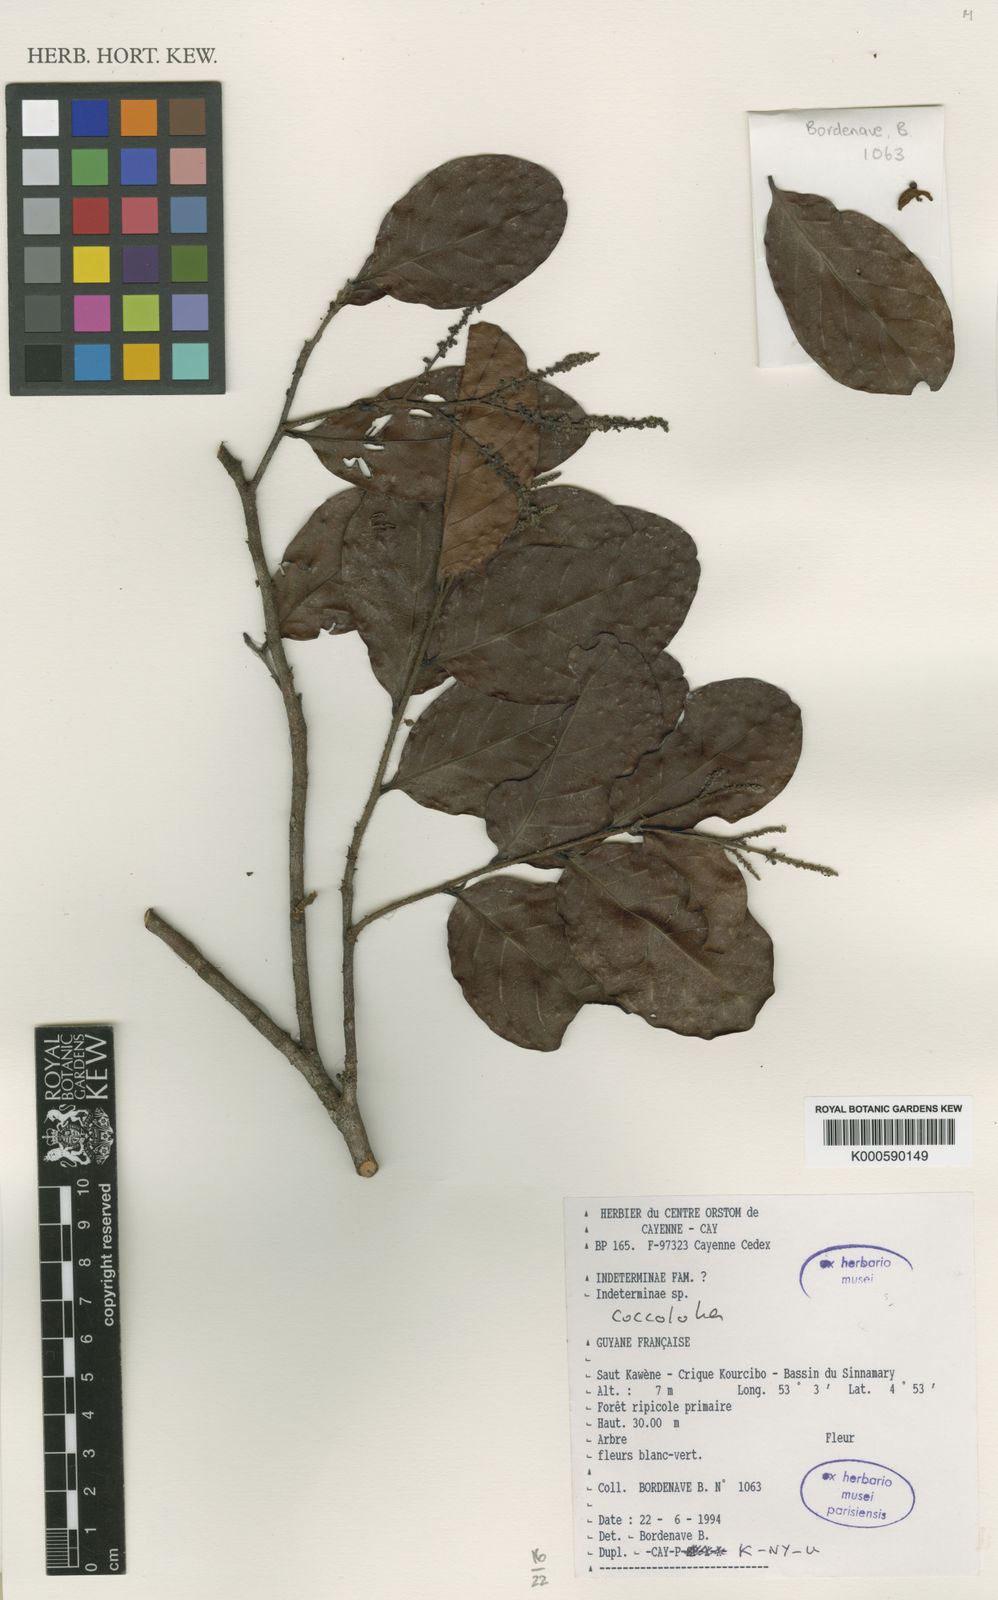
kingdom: Plantae
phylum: Tracheophyta
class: Magnoliopsida
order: Caryophyllales
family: Polygonaceae
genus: Coccoloba
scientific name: Coccoloba spinescens
